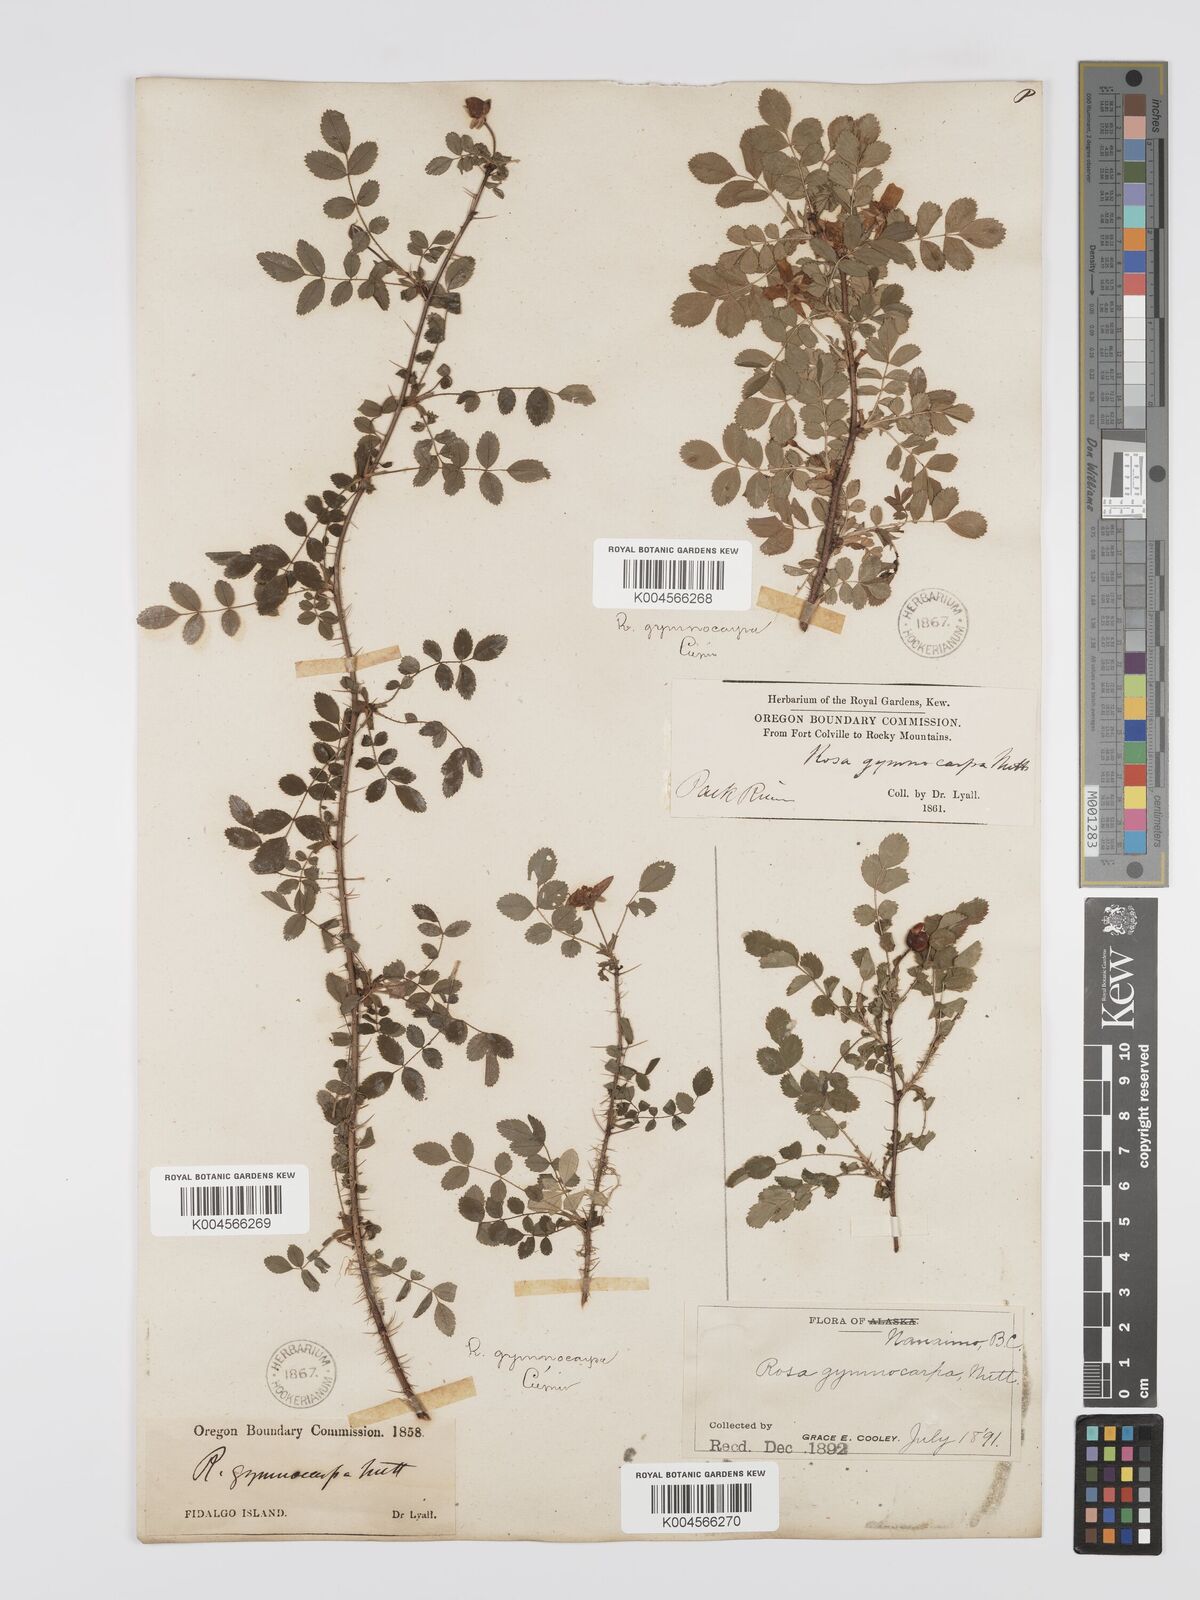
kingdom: Plantae
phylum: Tracheophyta
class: Magnoliopsida
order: Rosales
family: Rosaceae
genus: Rosa
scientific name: Rosa gymnocarpa
